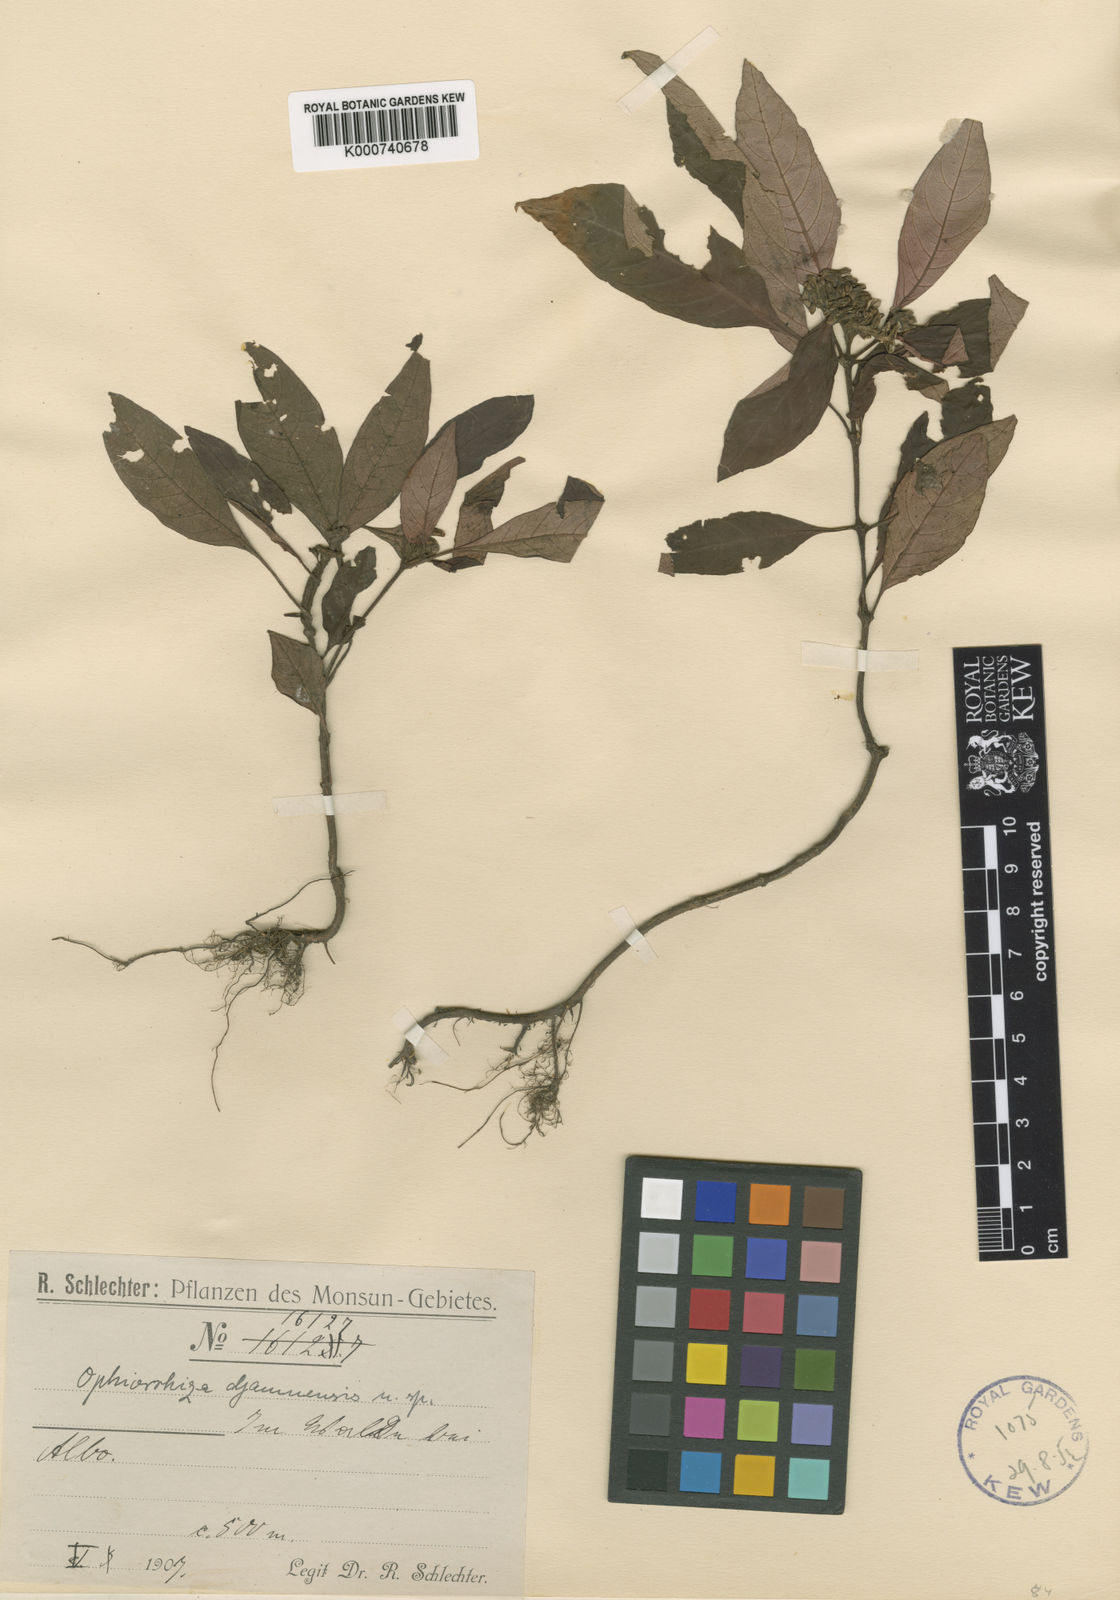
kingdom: Plantae
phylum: Tracheophyta
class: Magnoliopsida
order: Gentianales
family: Rubiaceae
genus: Ophiorrhiza
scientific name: Ophiorrhiza djamuensis
